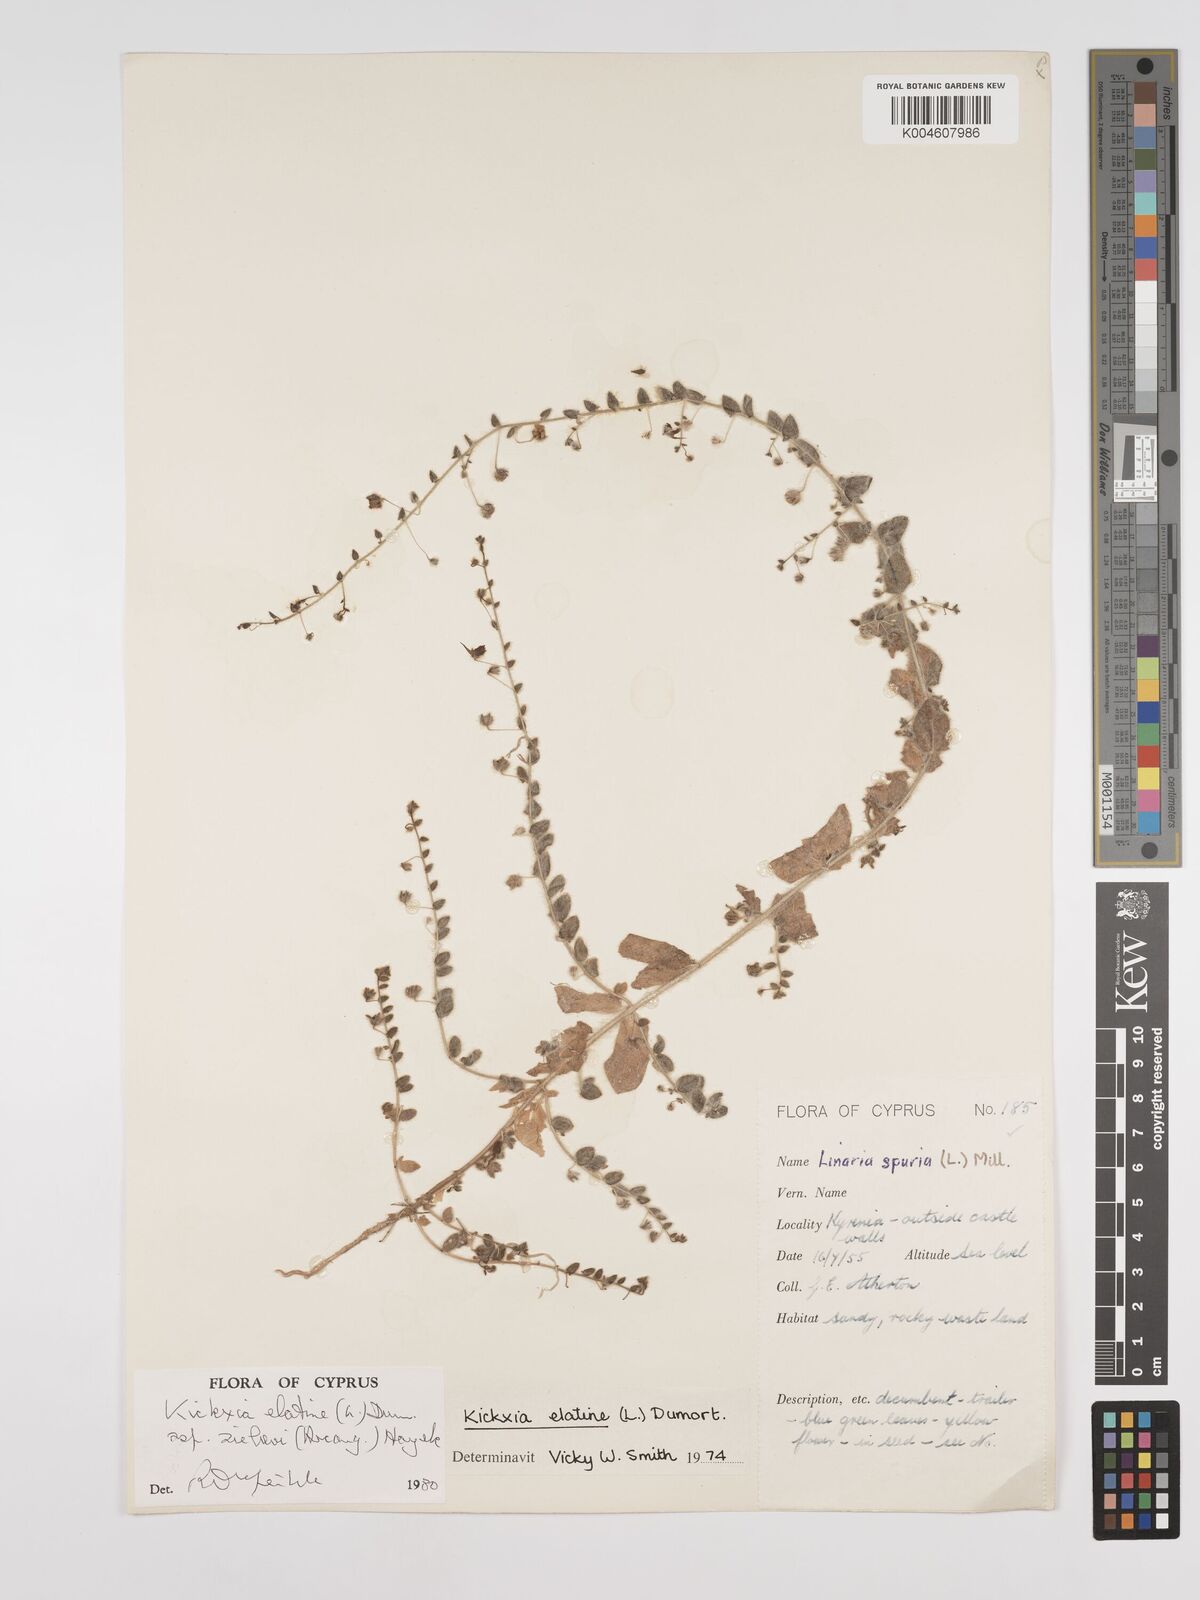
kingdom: Plantae
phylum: Tracheophyta
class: Magnoliopsida
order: Lamiales
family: Plantaginaceae
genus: Kickxia
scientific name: Kickxia elatine
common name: Sharp-leaved fluellen
